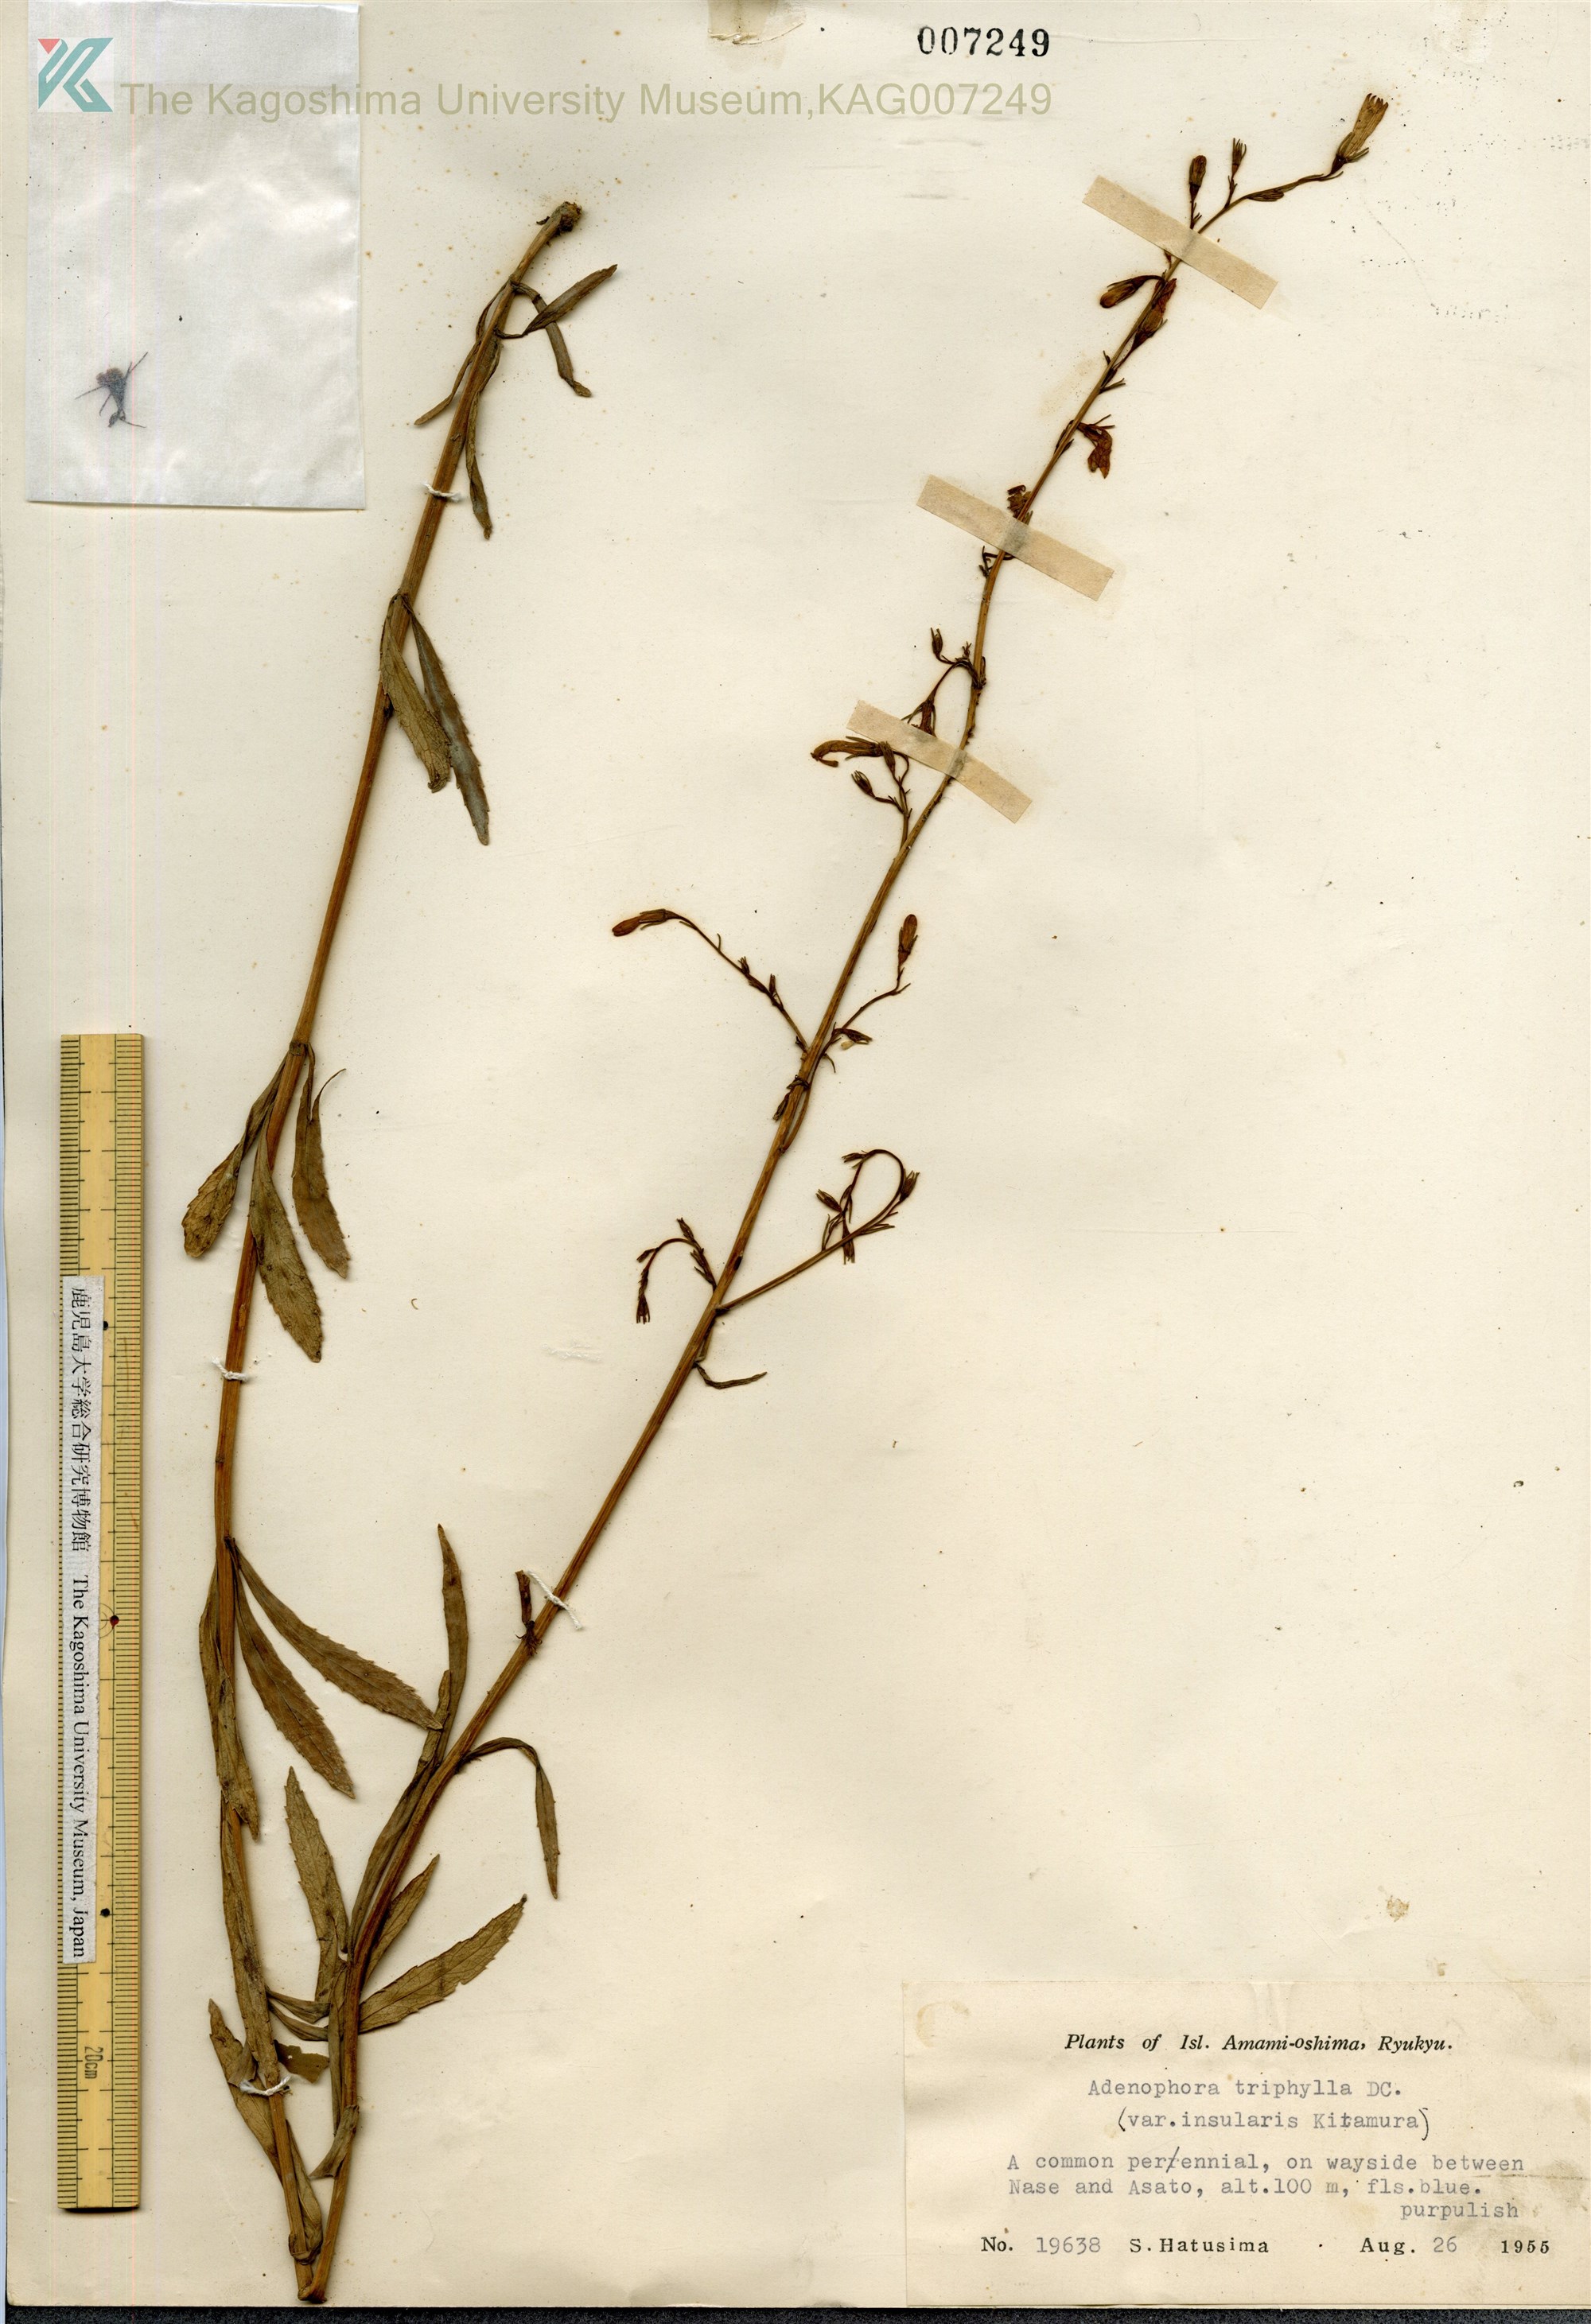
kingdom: Plantae
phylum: Tracheophyta
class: Magnoliopsida
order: Asterales
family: Campanulaceae
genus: Adenophora
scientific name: Adenophora tashiroi
